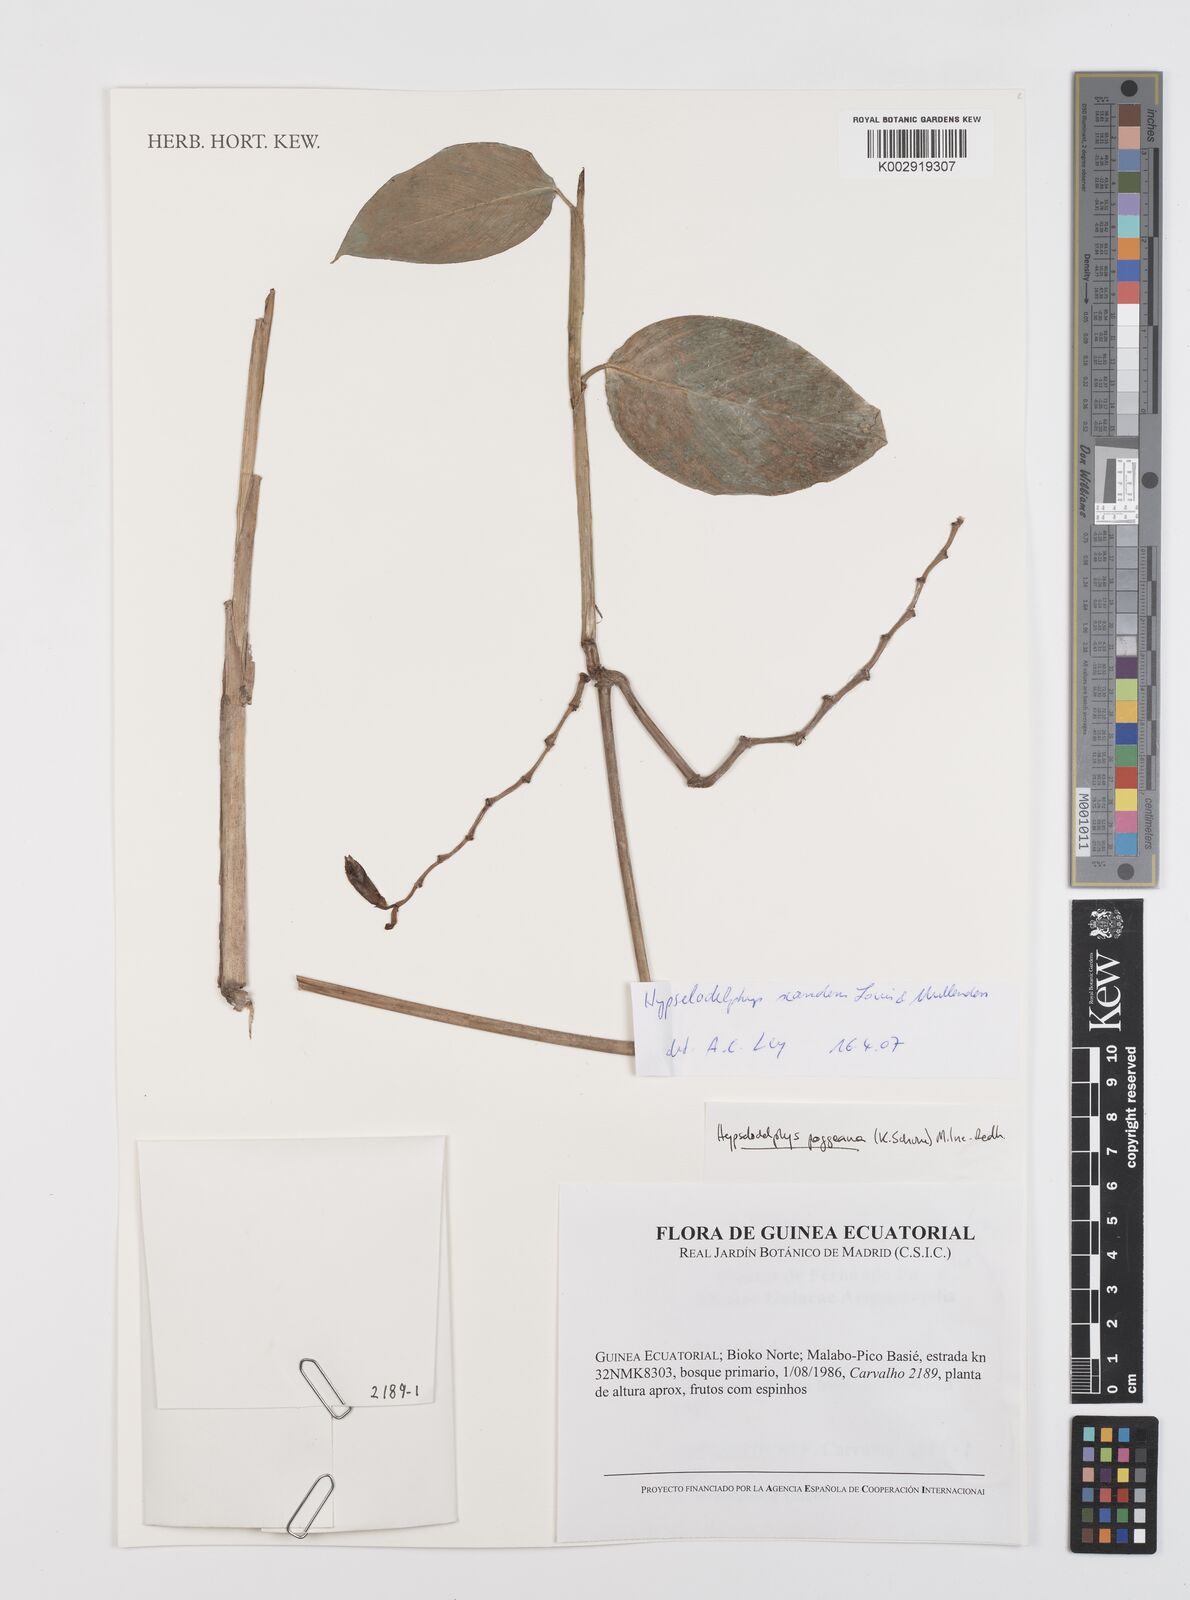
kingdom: Plantae
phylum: Tracheophyta
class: Liliopsida
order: Zingiberales
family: Marantaceae
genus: Hypselodelphys
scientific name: Hypselodelphys scandens
